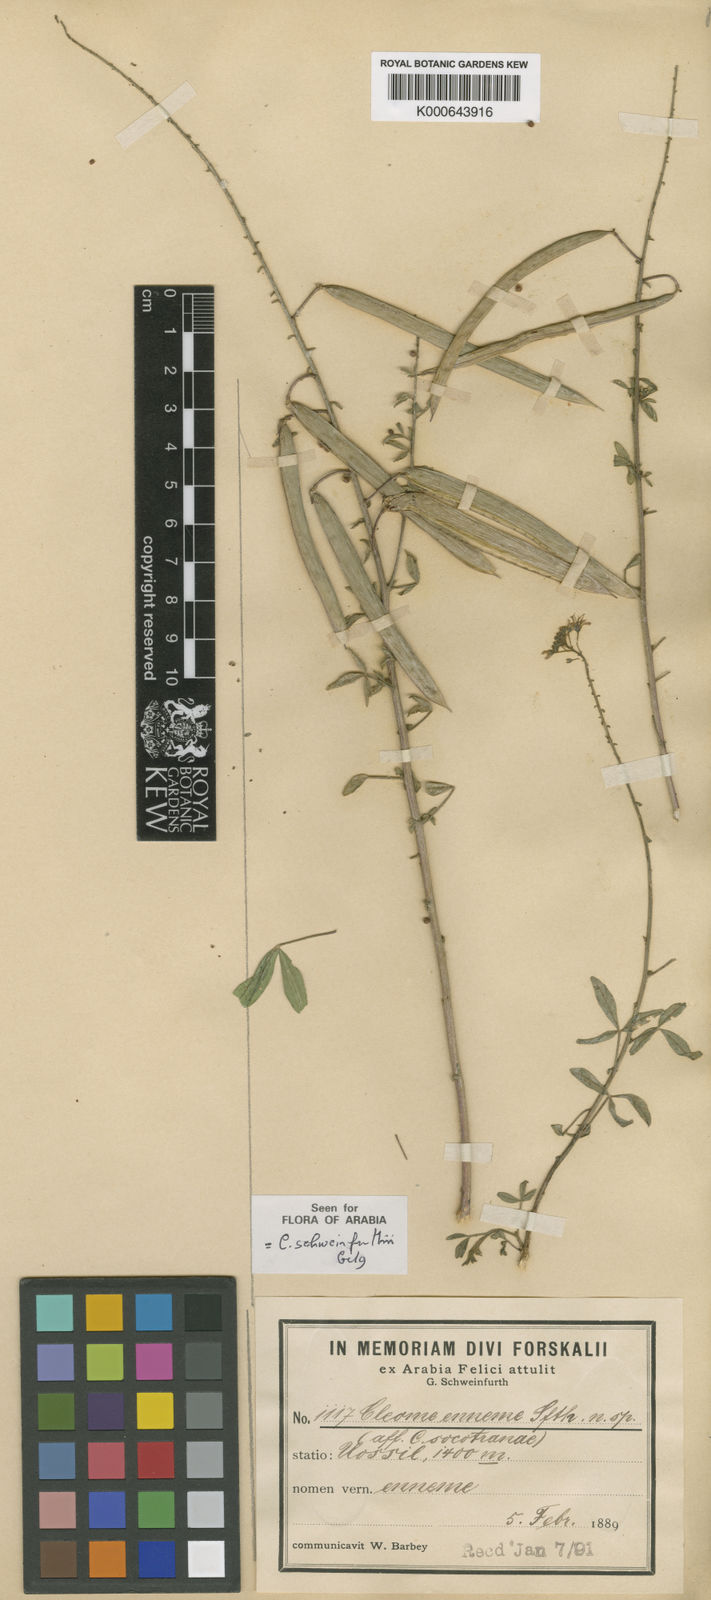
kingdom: Plantae
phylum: Tracheophyta
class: Magnoliopsida
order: Brassicales
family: Cleomaceae
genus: Cleome
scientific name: Cleome ramosissima
